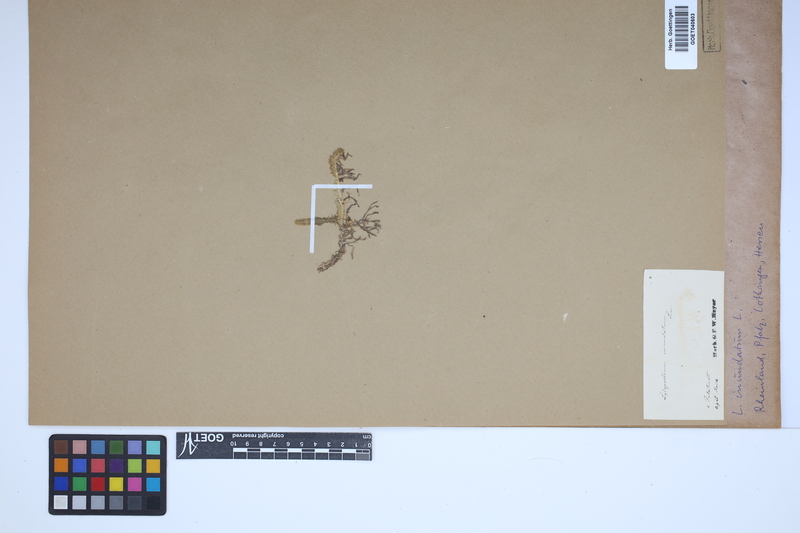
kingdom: Plantae
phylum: Tracheophyta
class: Lycopodiopsida
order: Lycopodiales
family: Lycopodiaceae
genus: Lycopodiella
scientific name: Lycopodiella inundata
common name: Marsh clubmoss
